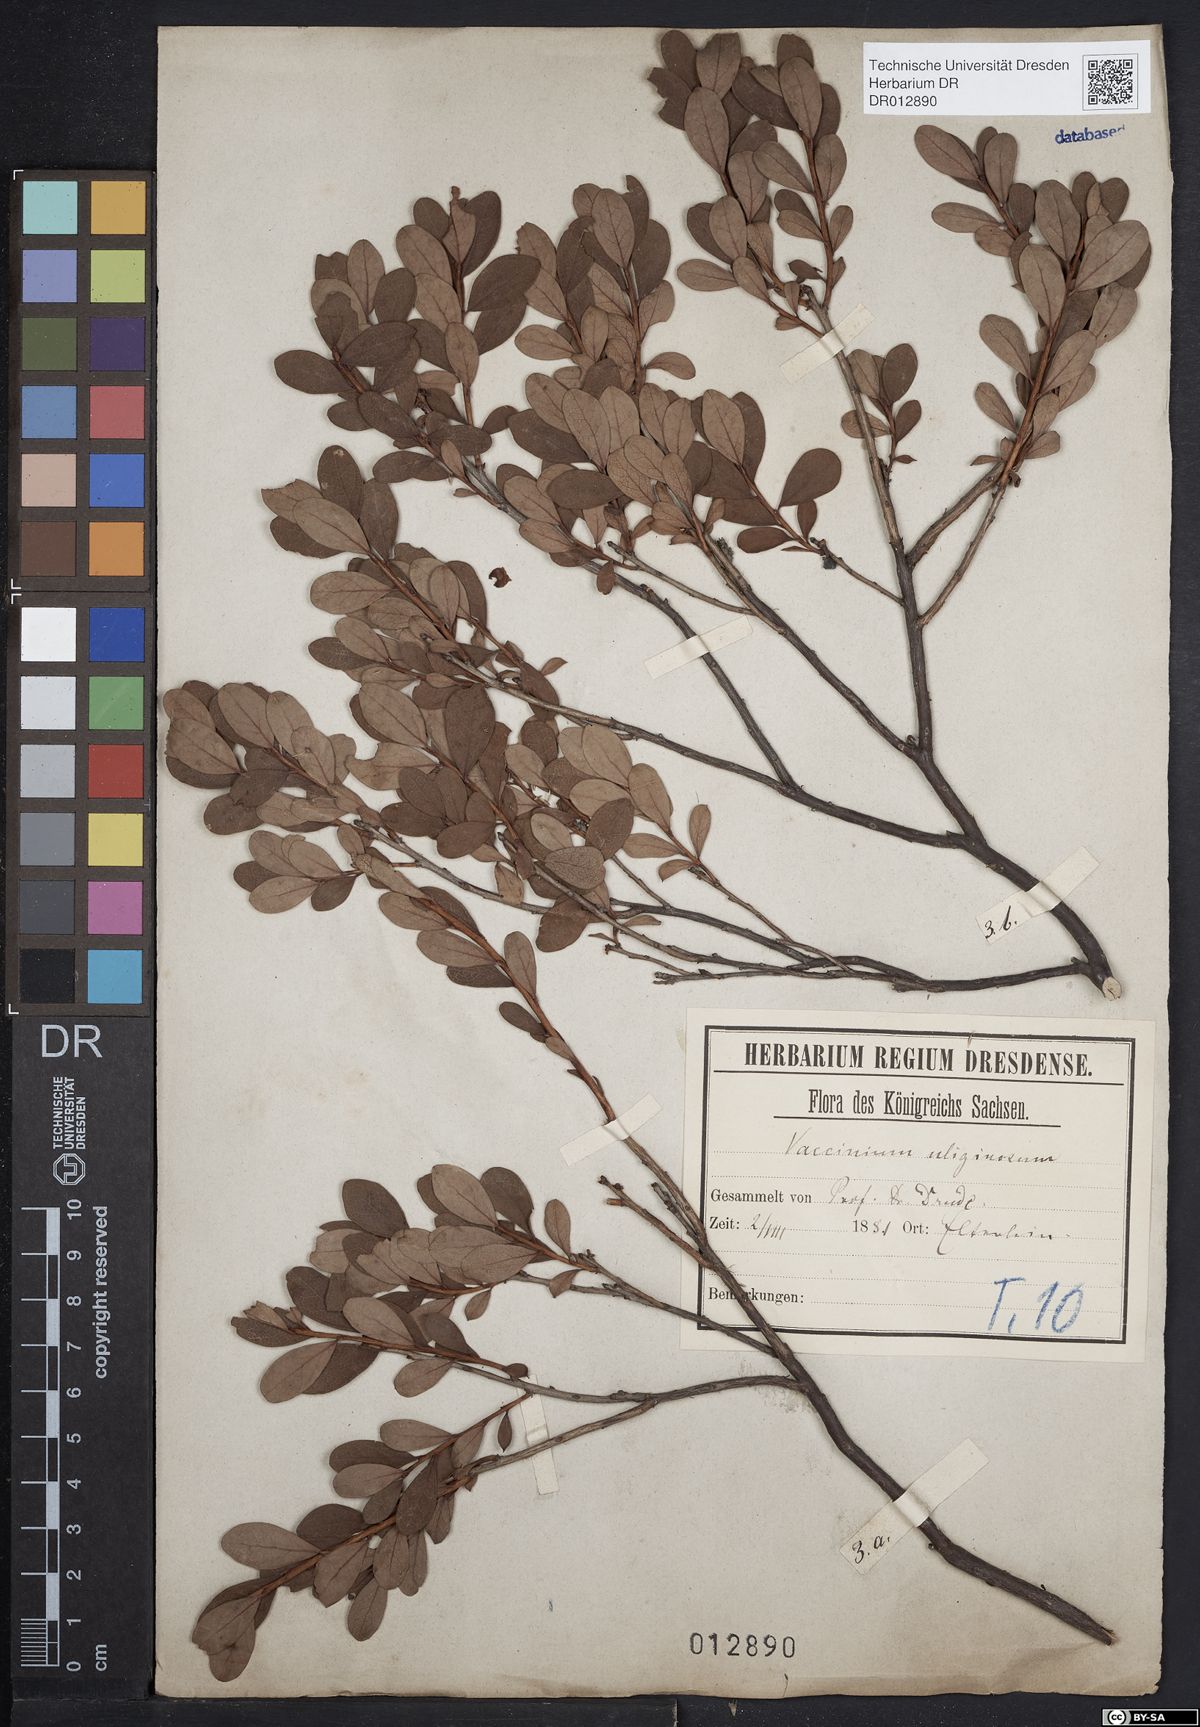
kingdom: Plantae
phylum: Tracheophyta
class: Magnoliopsida
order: Ericales
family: Ericaceae
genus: Vaccinium
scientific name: Vaccinium uliginosum
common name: Bog bilberry
